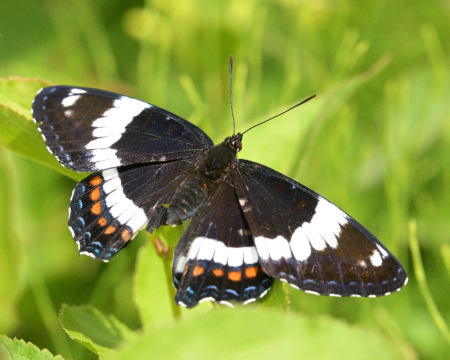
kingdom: Animalia
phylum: Arthropoda
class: Insecta
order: Lepidoptera
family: Nymphalidae
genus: Limenitis
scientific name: Limenitis arthemis
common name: Red-spotted Admiral
